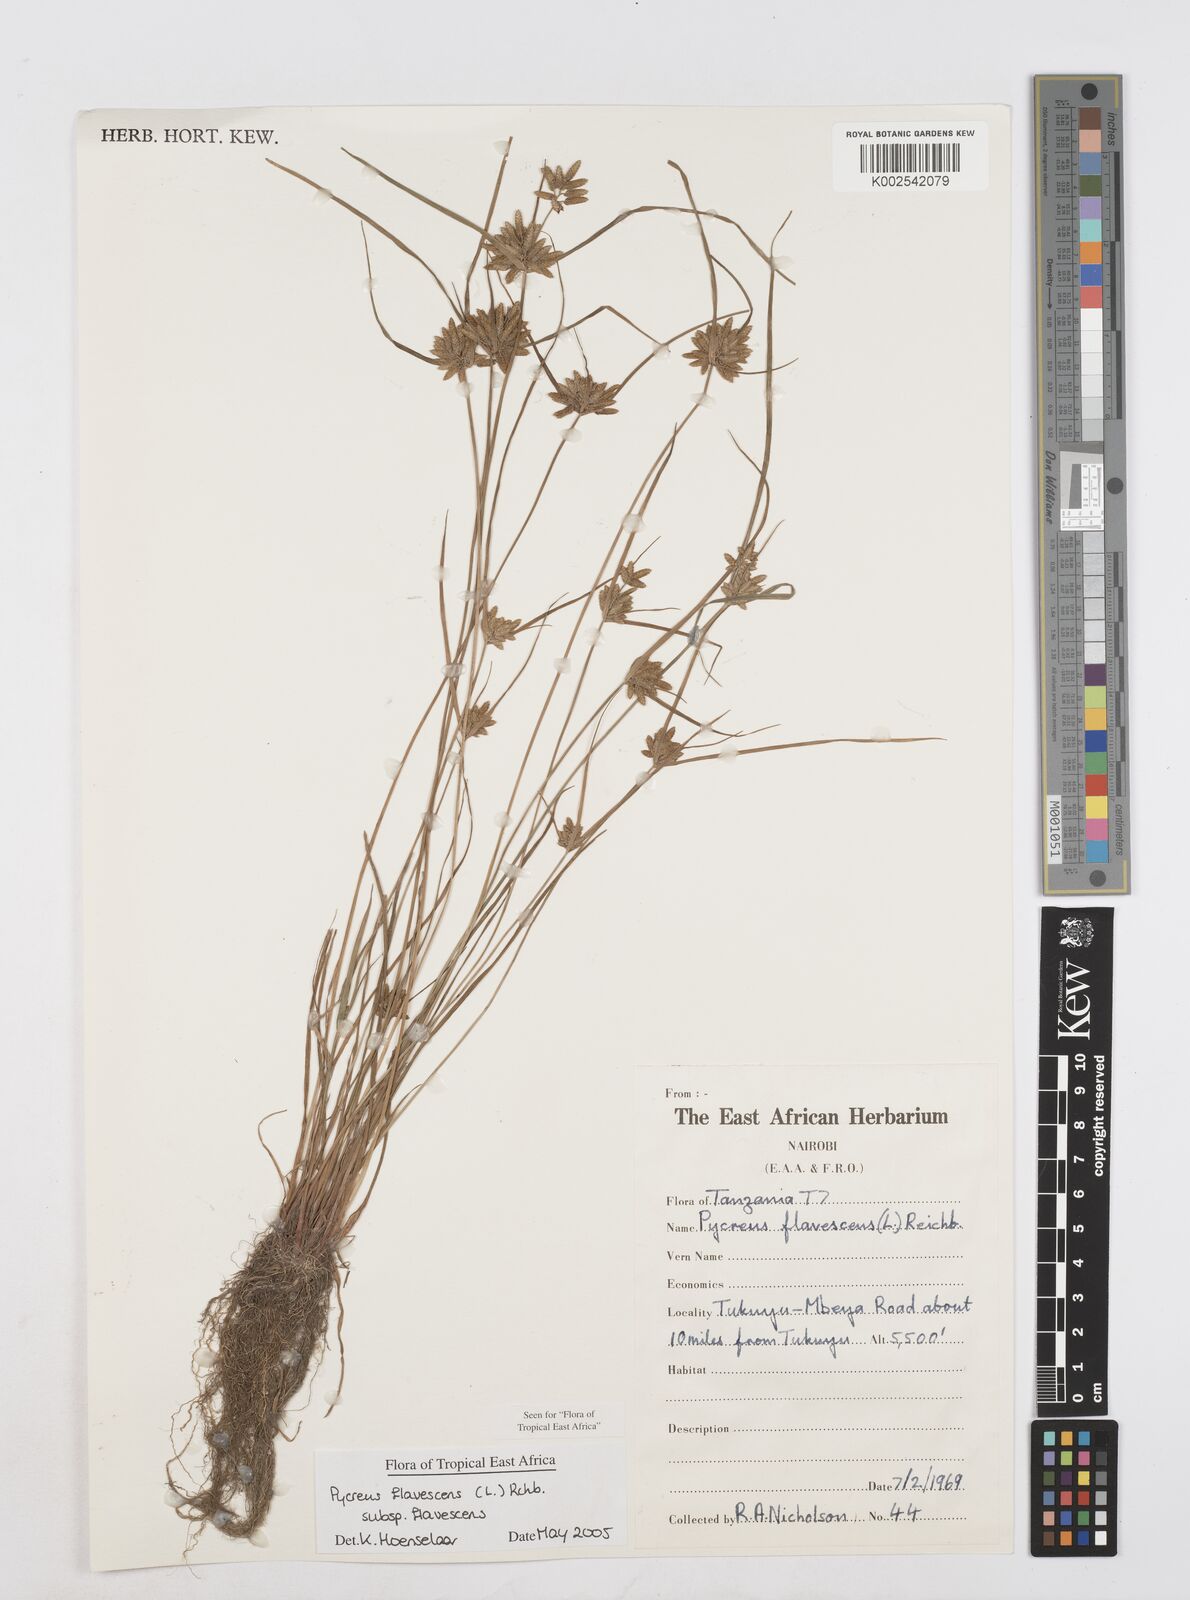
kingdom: Plantae
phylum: Tracheophyta
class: Liliopsida
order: Poales
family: Cyperaceae
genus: Cyperus
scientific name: Cyperus flavescens
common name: Yellow galingale
